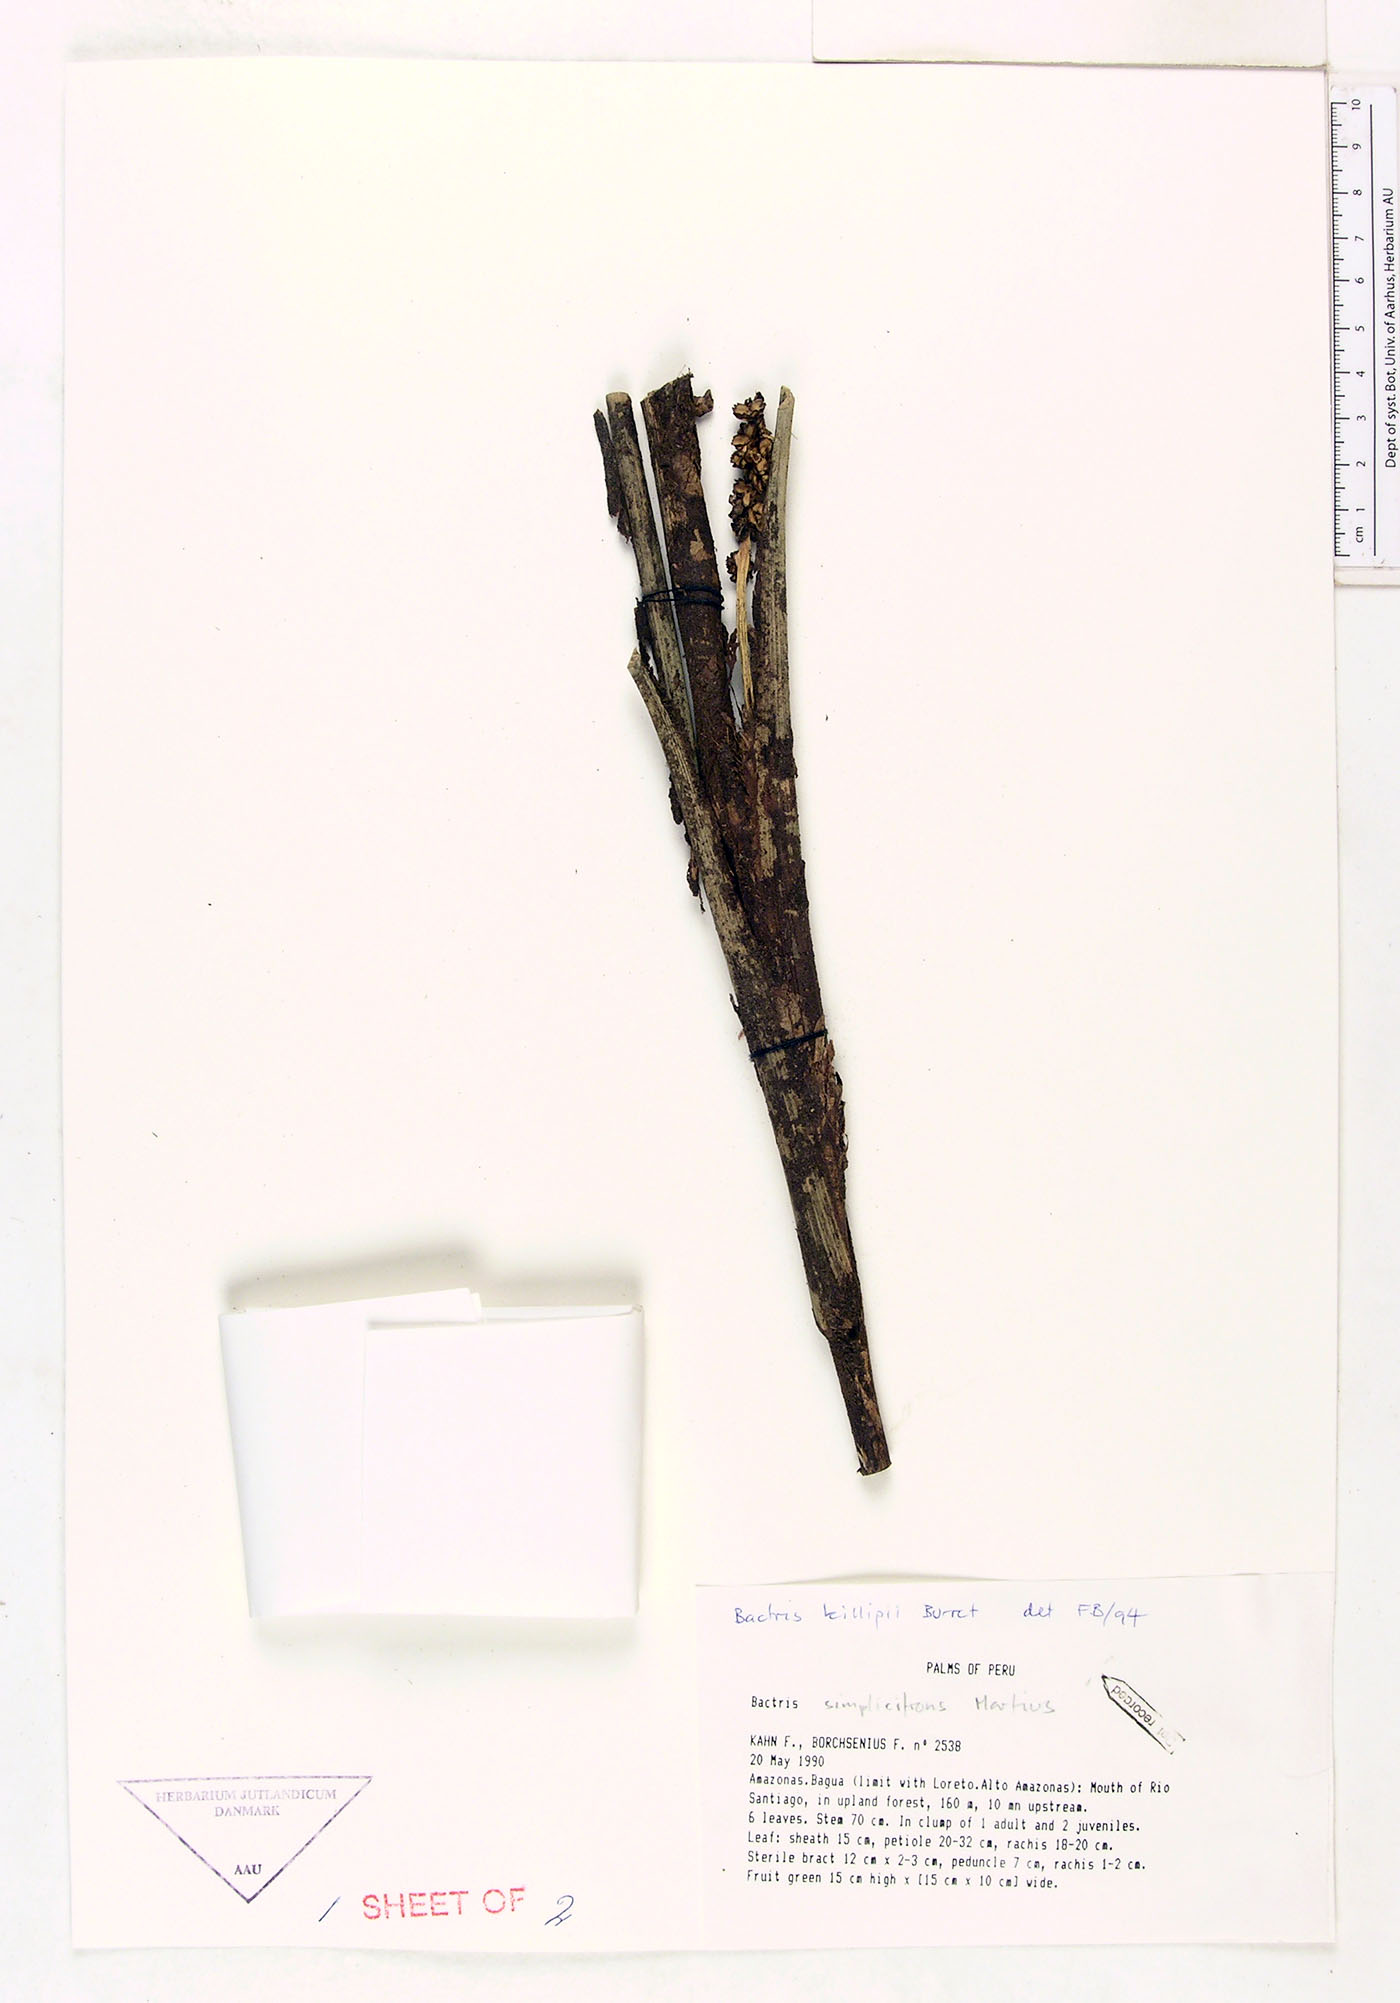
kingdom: Plantae
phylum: Tracheophyta
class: Liliopsida
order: Arecales
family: Arecaceae
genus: Bactris
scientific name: Bactris killipii
